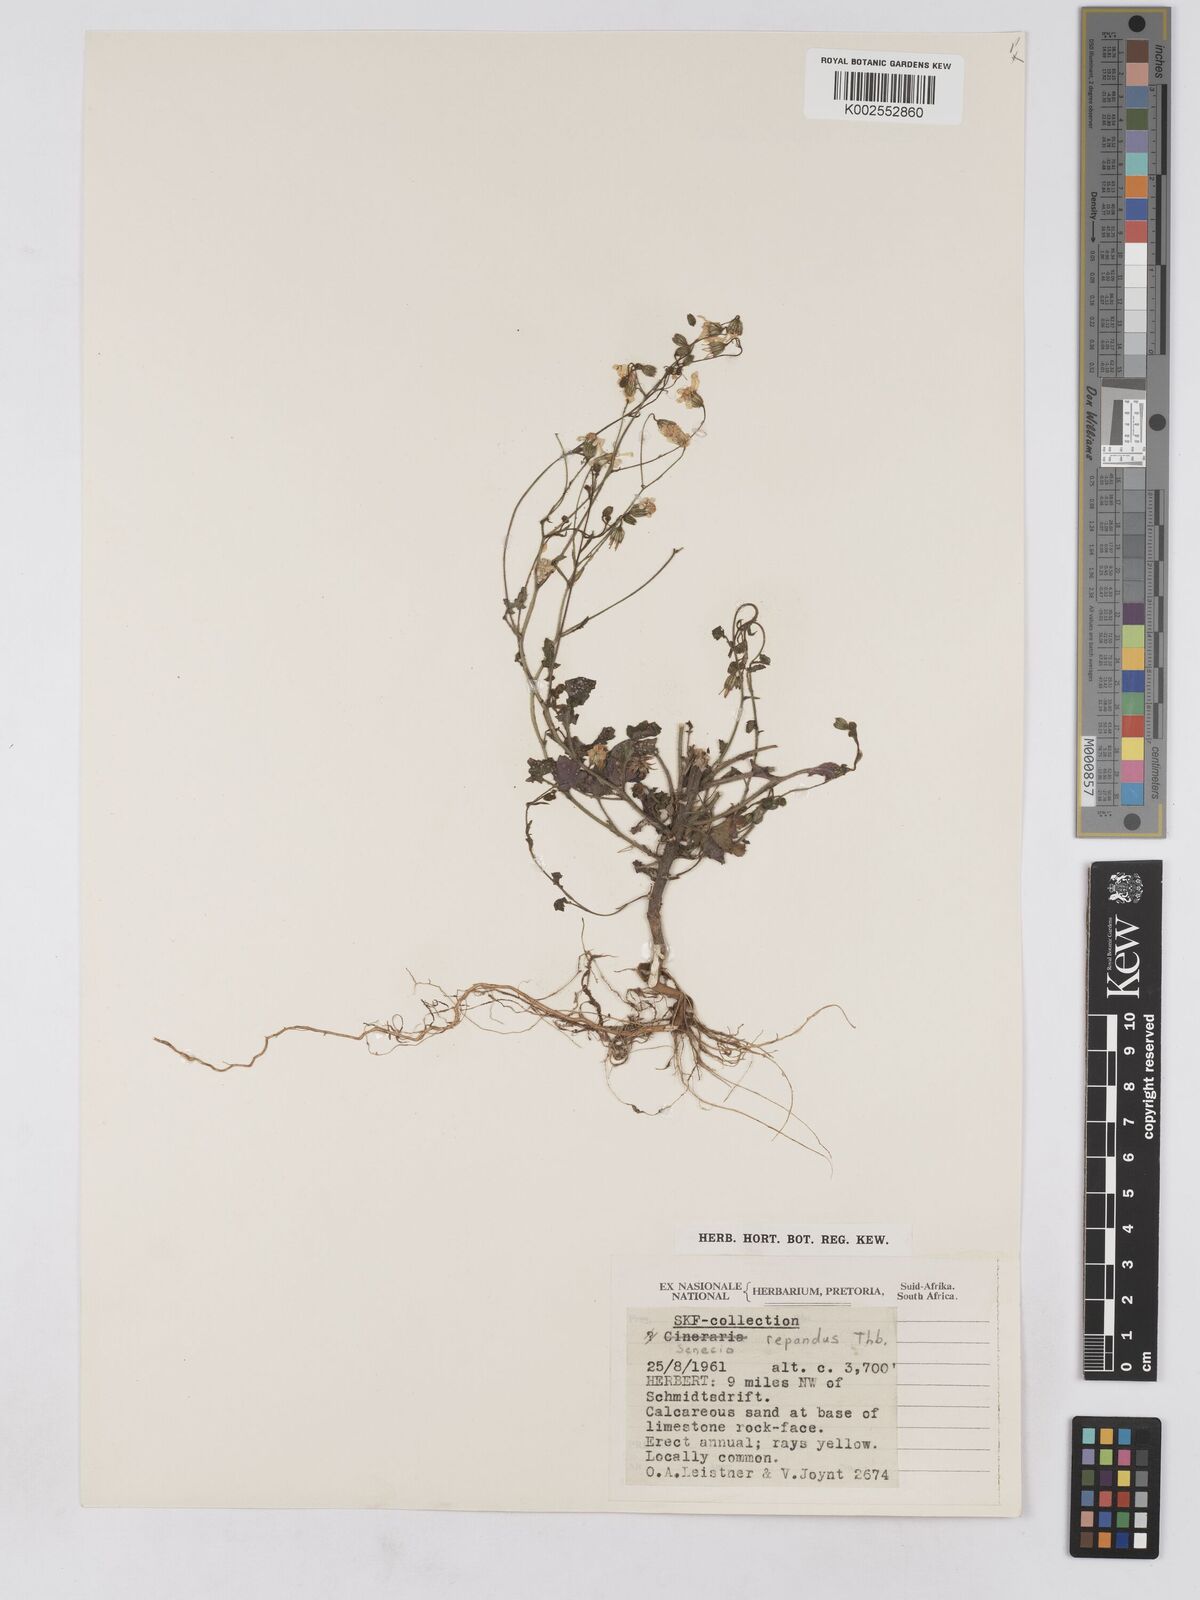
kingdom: Plantae
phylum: Tracheophyta
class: Magnoliopsida
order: Asterales
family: Asteraceae
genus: Senecio
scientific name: Senecio repandus
